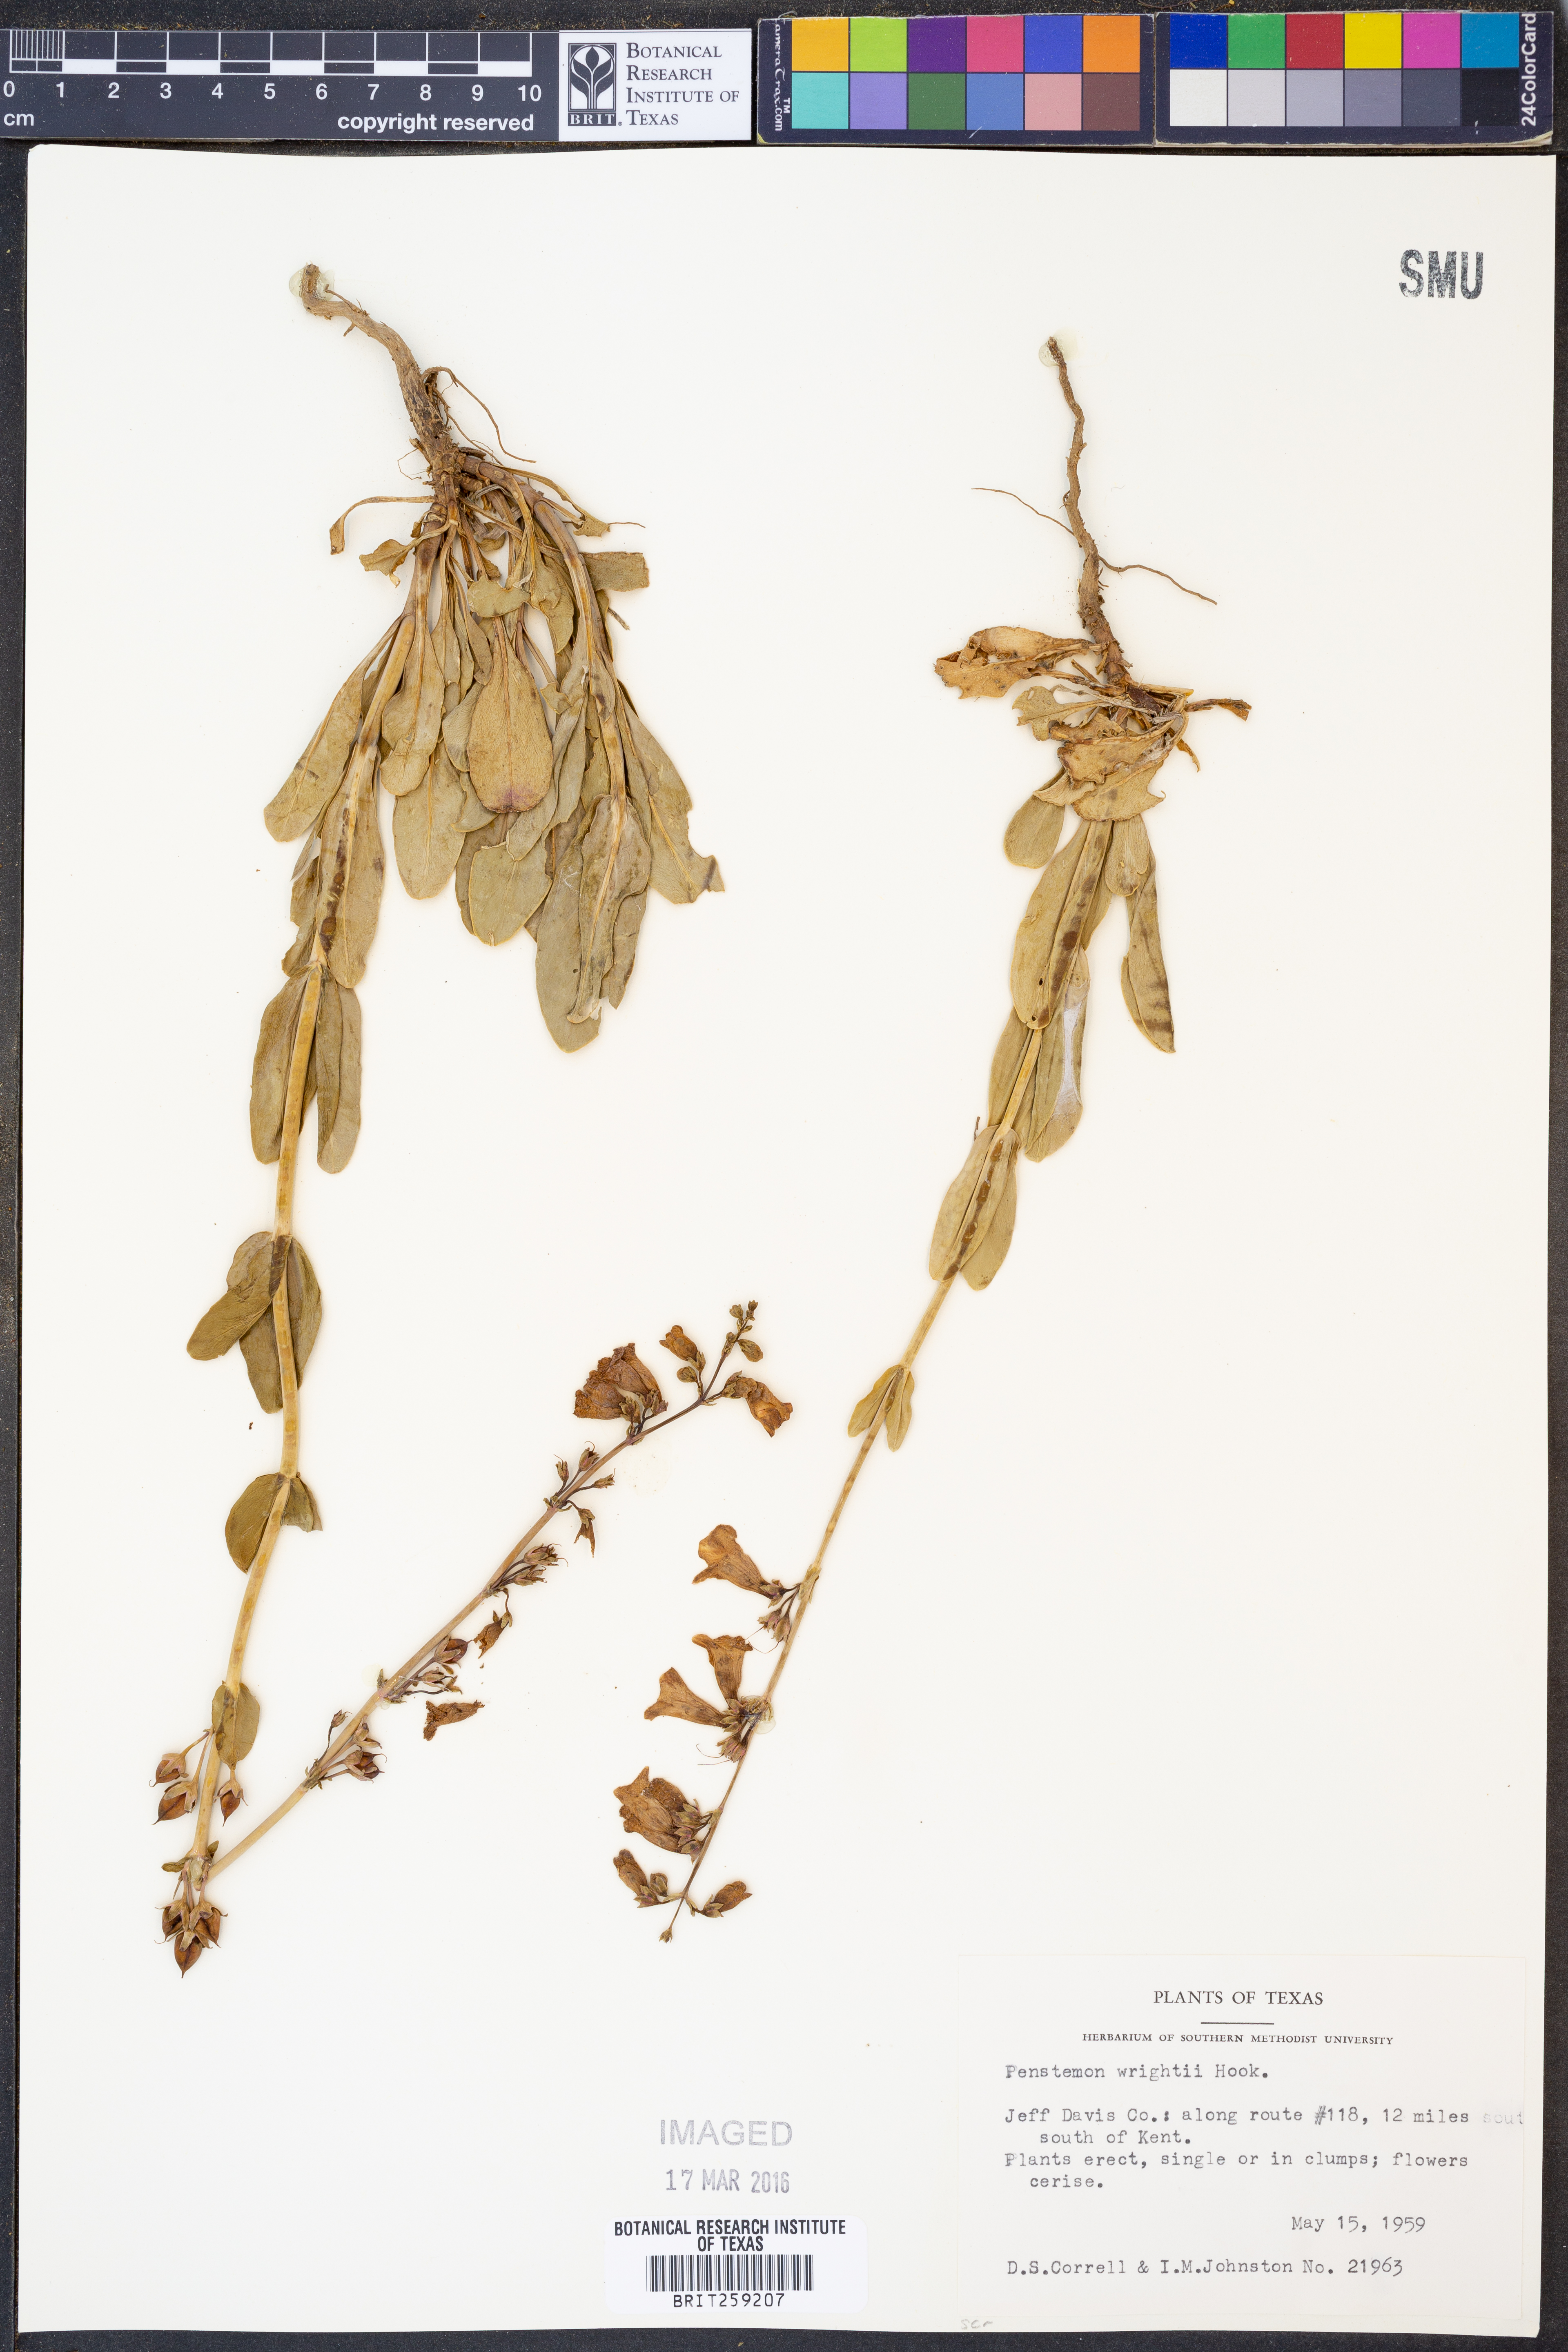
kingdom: Plantae
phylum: Tracheophyta
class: Magnoliopsida
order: Lamiales
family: Plantaginaceae
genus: Penstemon
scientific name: Penstemon wrightii
